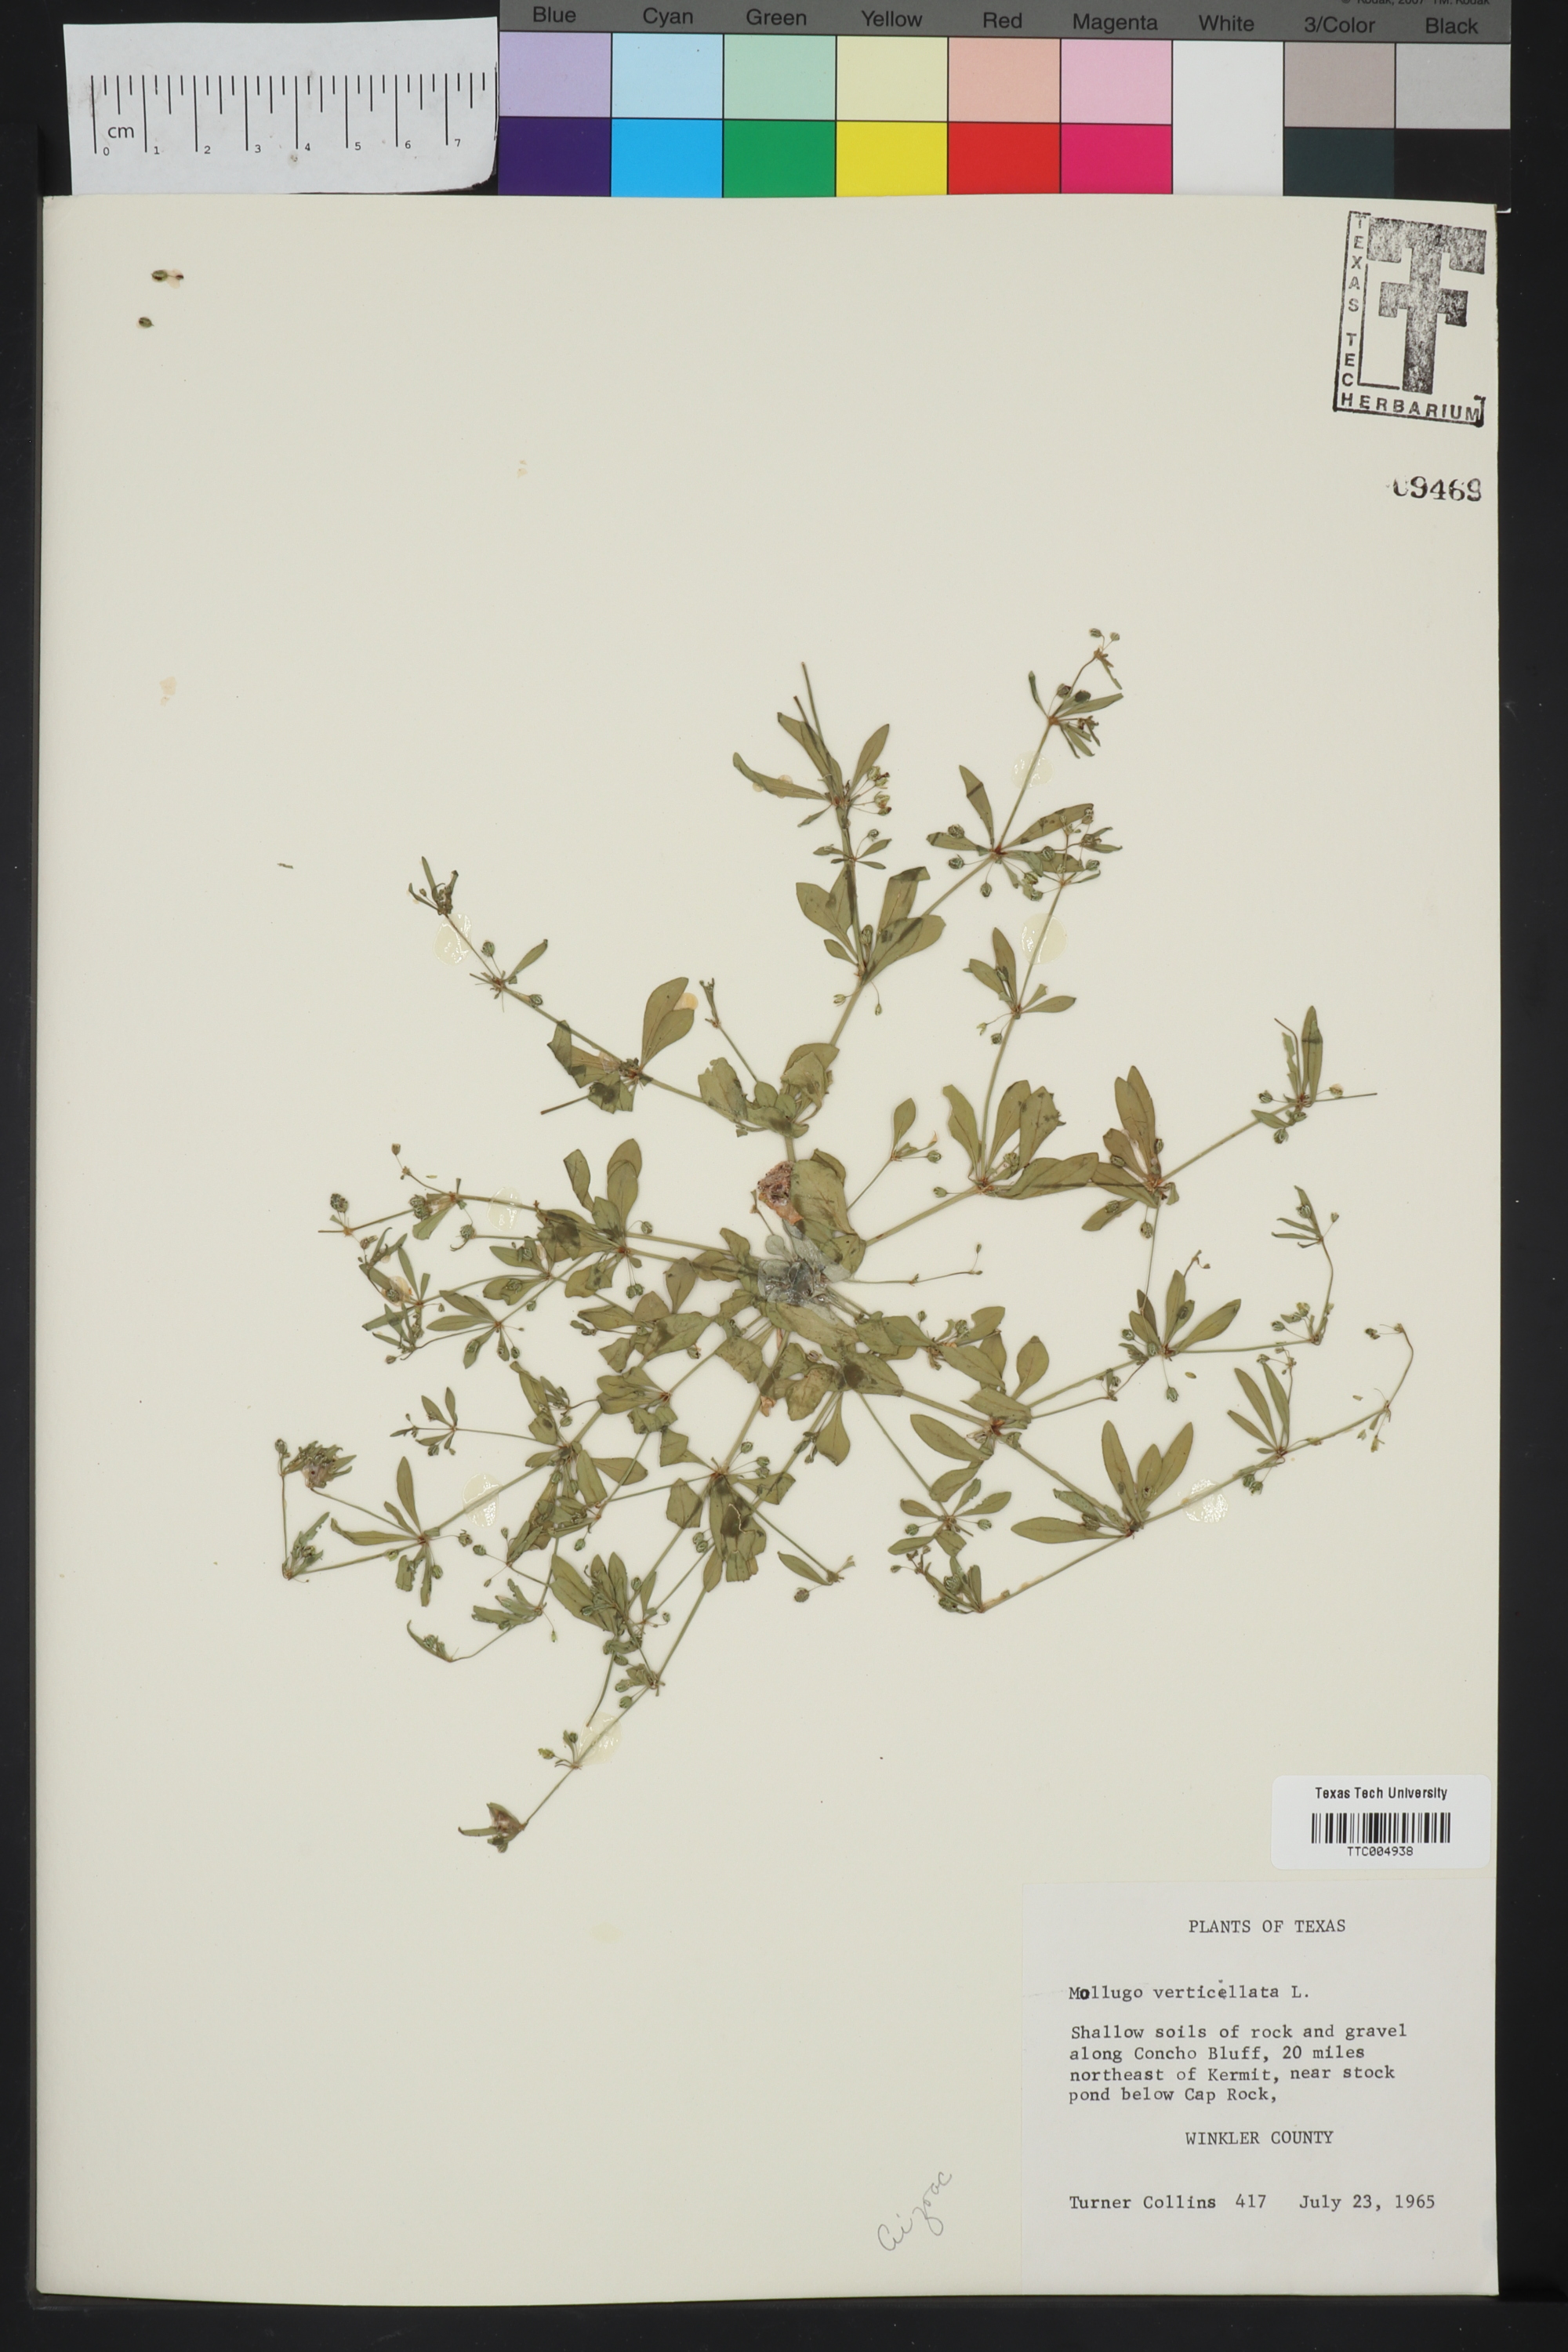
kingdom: Plantae
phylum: Tracheophyta
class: Magnoliopsida
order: Caryophyllales
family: Molluginaceae
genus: Mollugo
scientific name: Mollugo verticillata
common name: Green carpetweed
